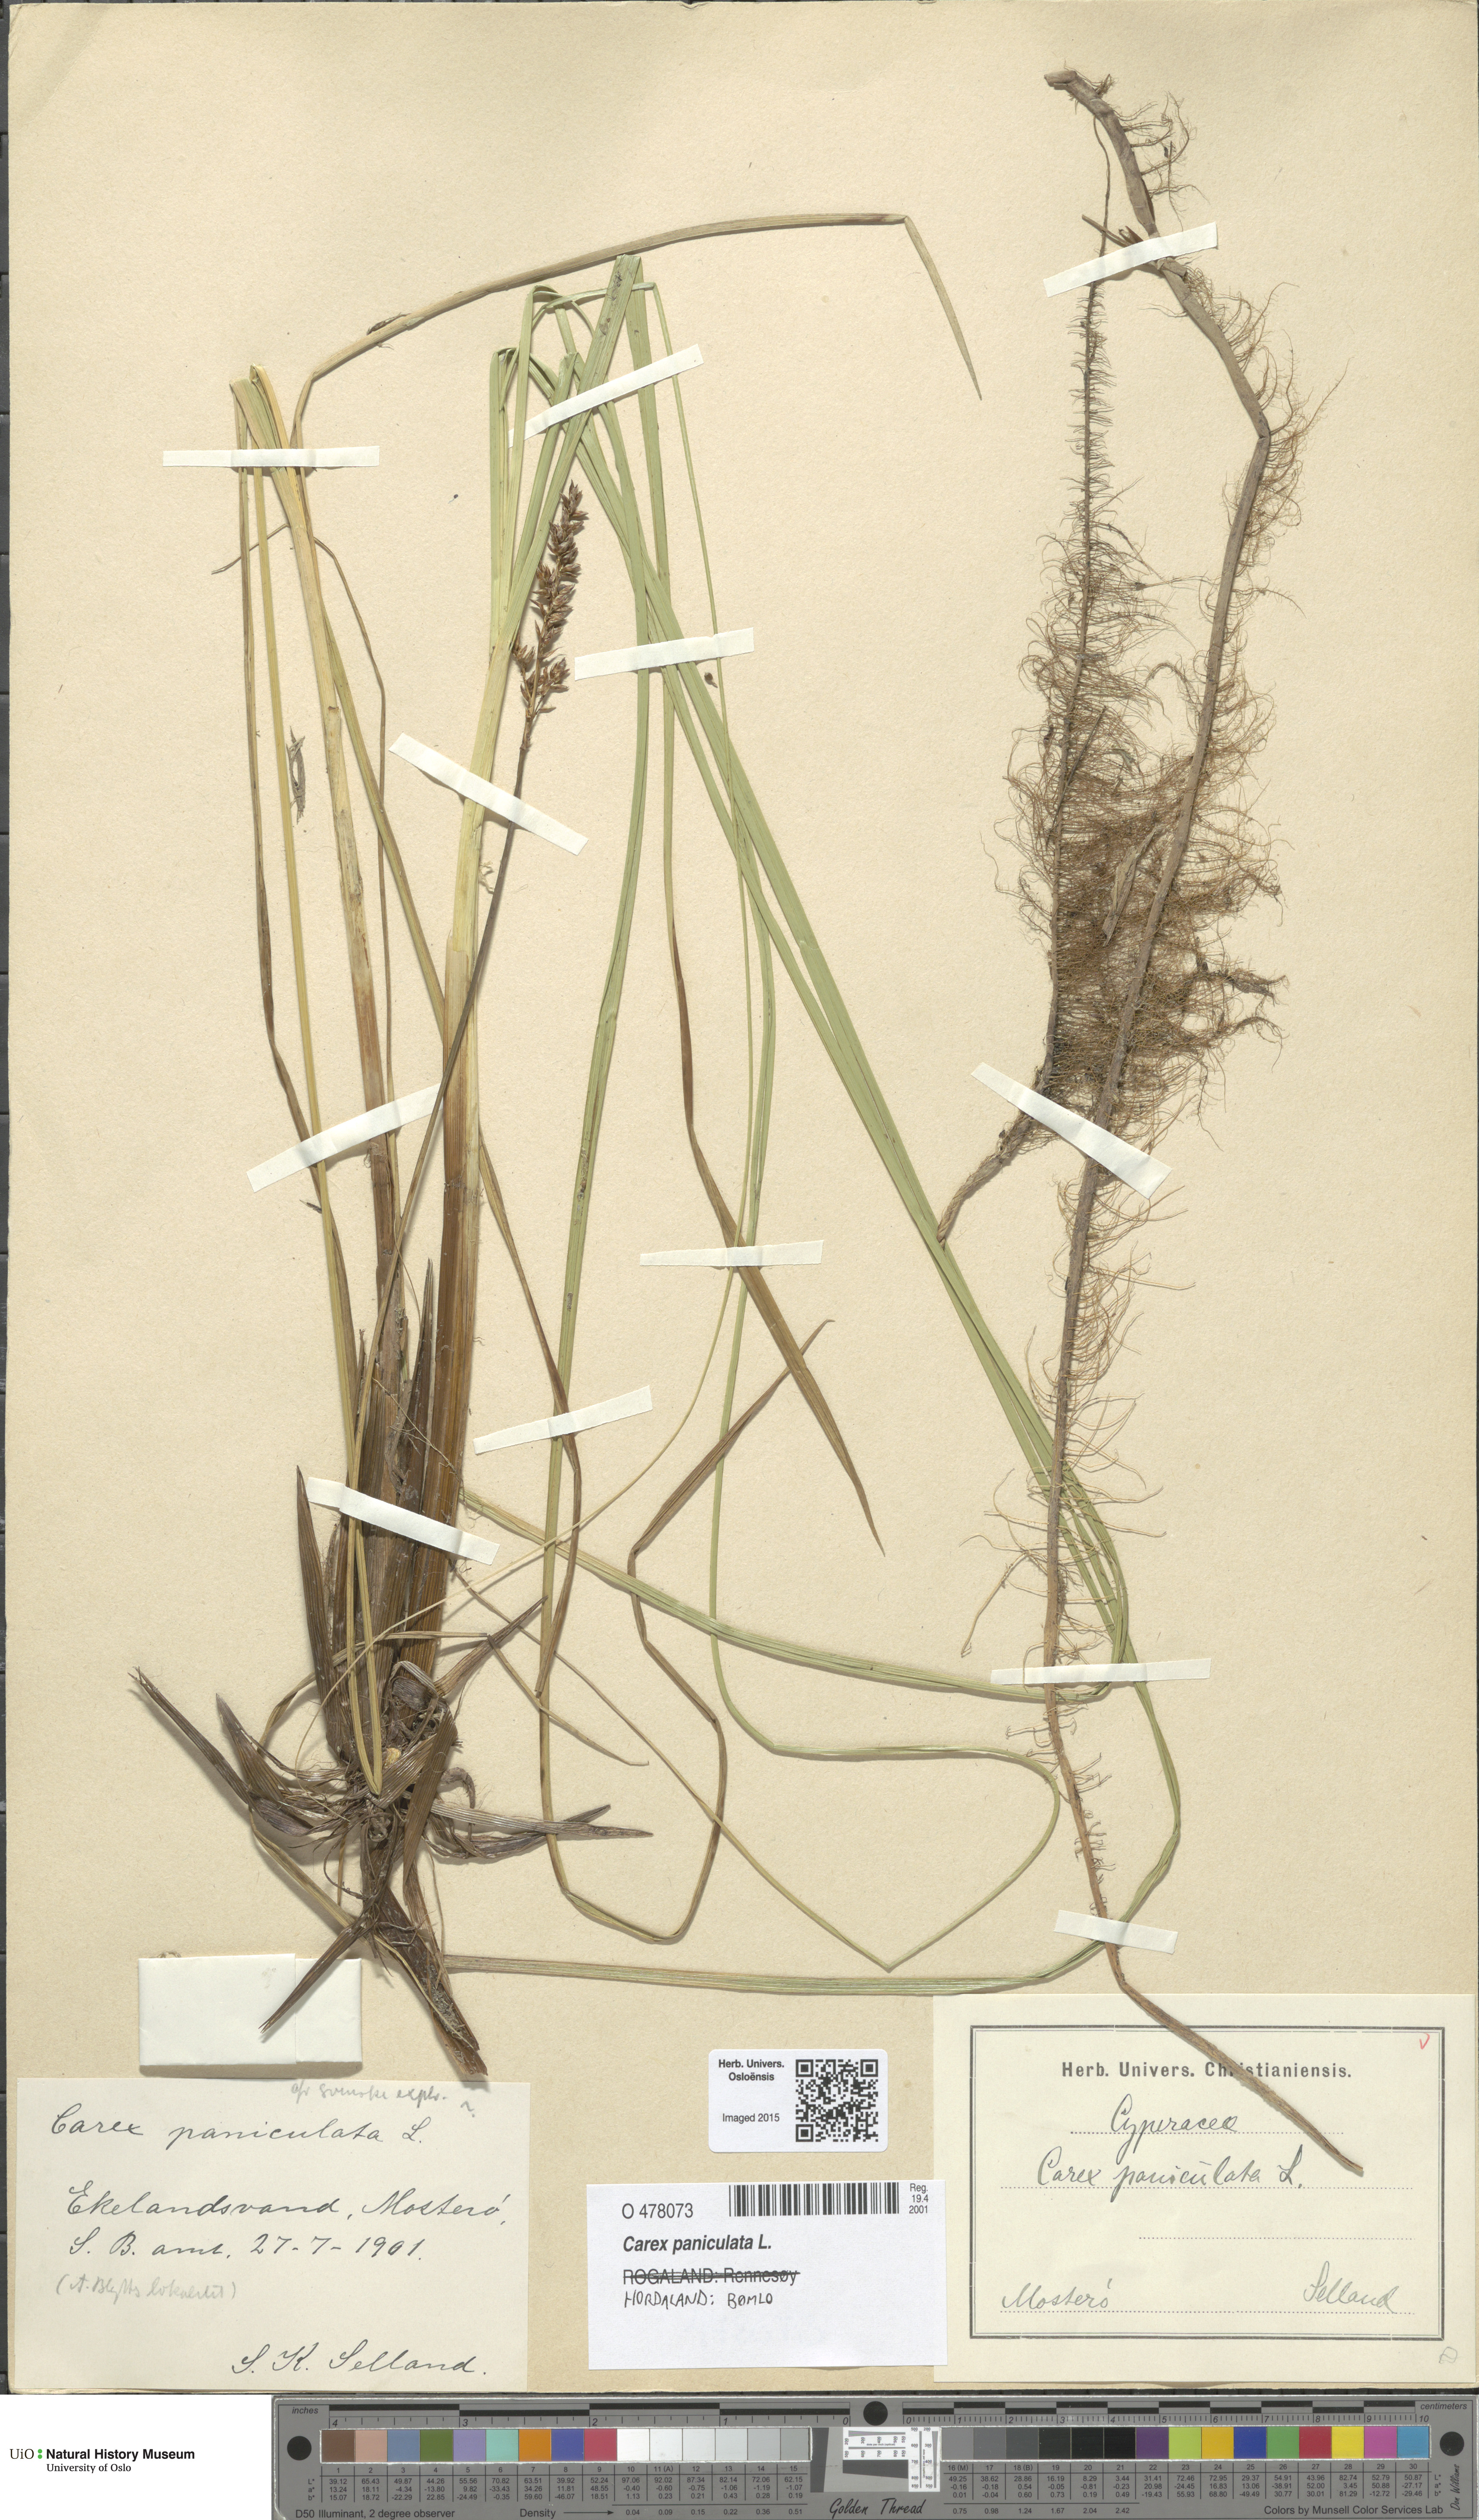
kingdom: Plantae
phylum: Tracheophyta
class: Liliopsida
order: Poales
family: Cyperaceae
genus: Carex
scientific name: Carex paniculata
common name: Greater tussock-sedge
